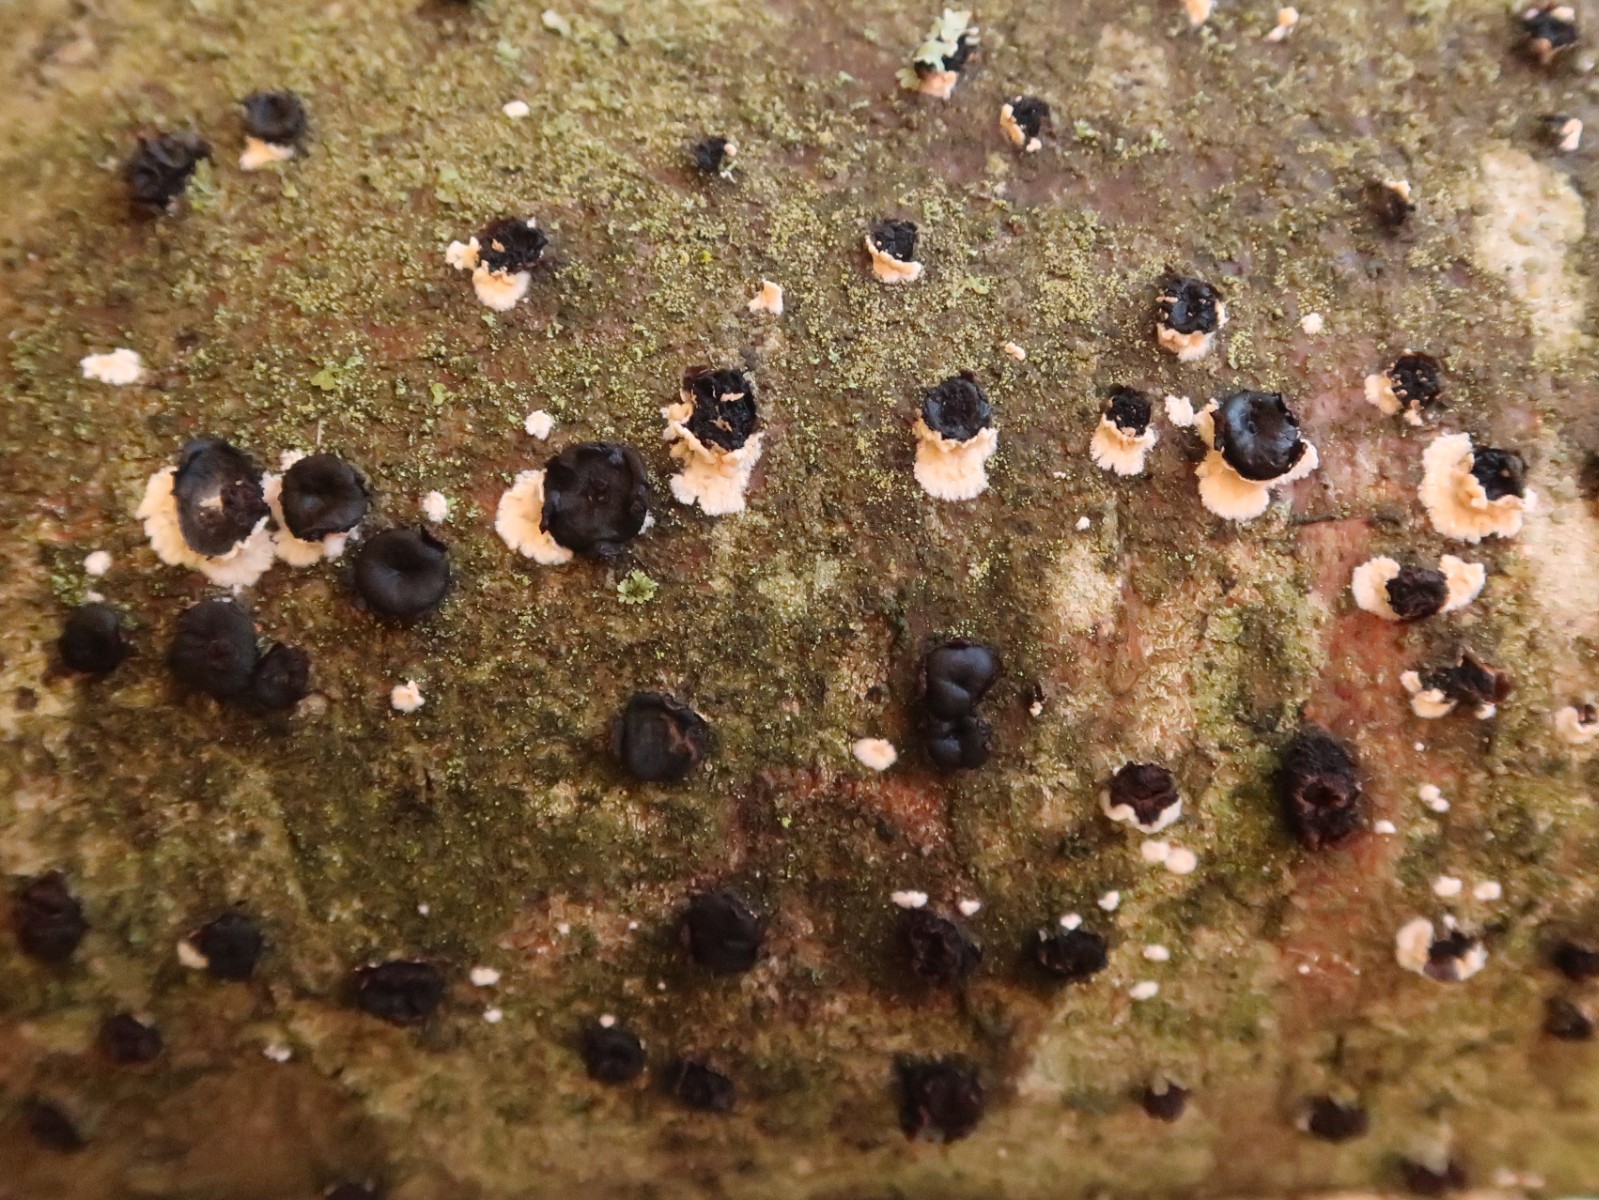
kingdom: Fungi
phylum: Ascomycota
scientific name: Ascomycota
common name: sæksvampe
